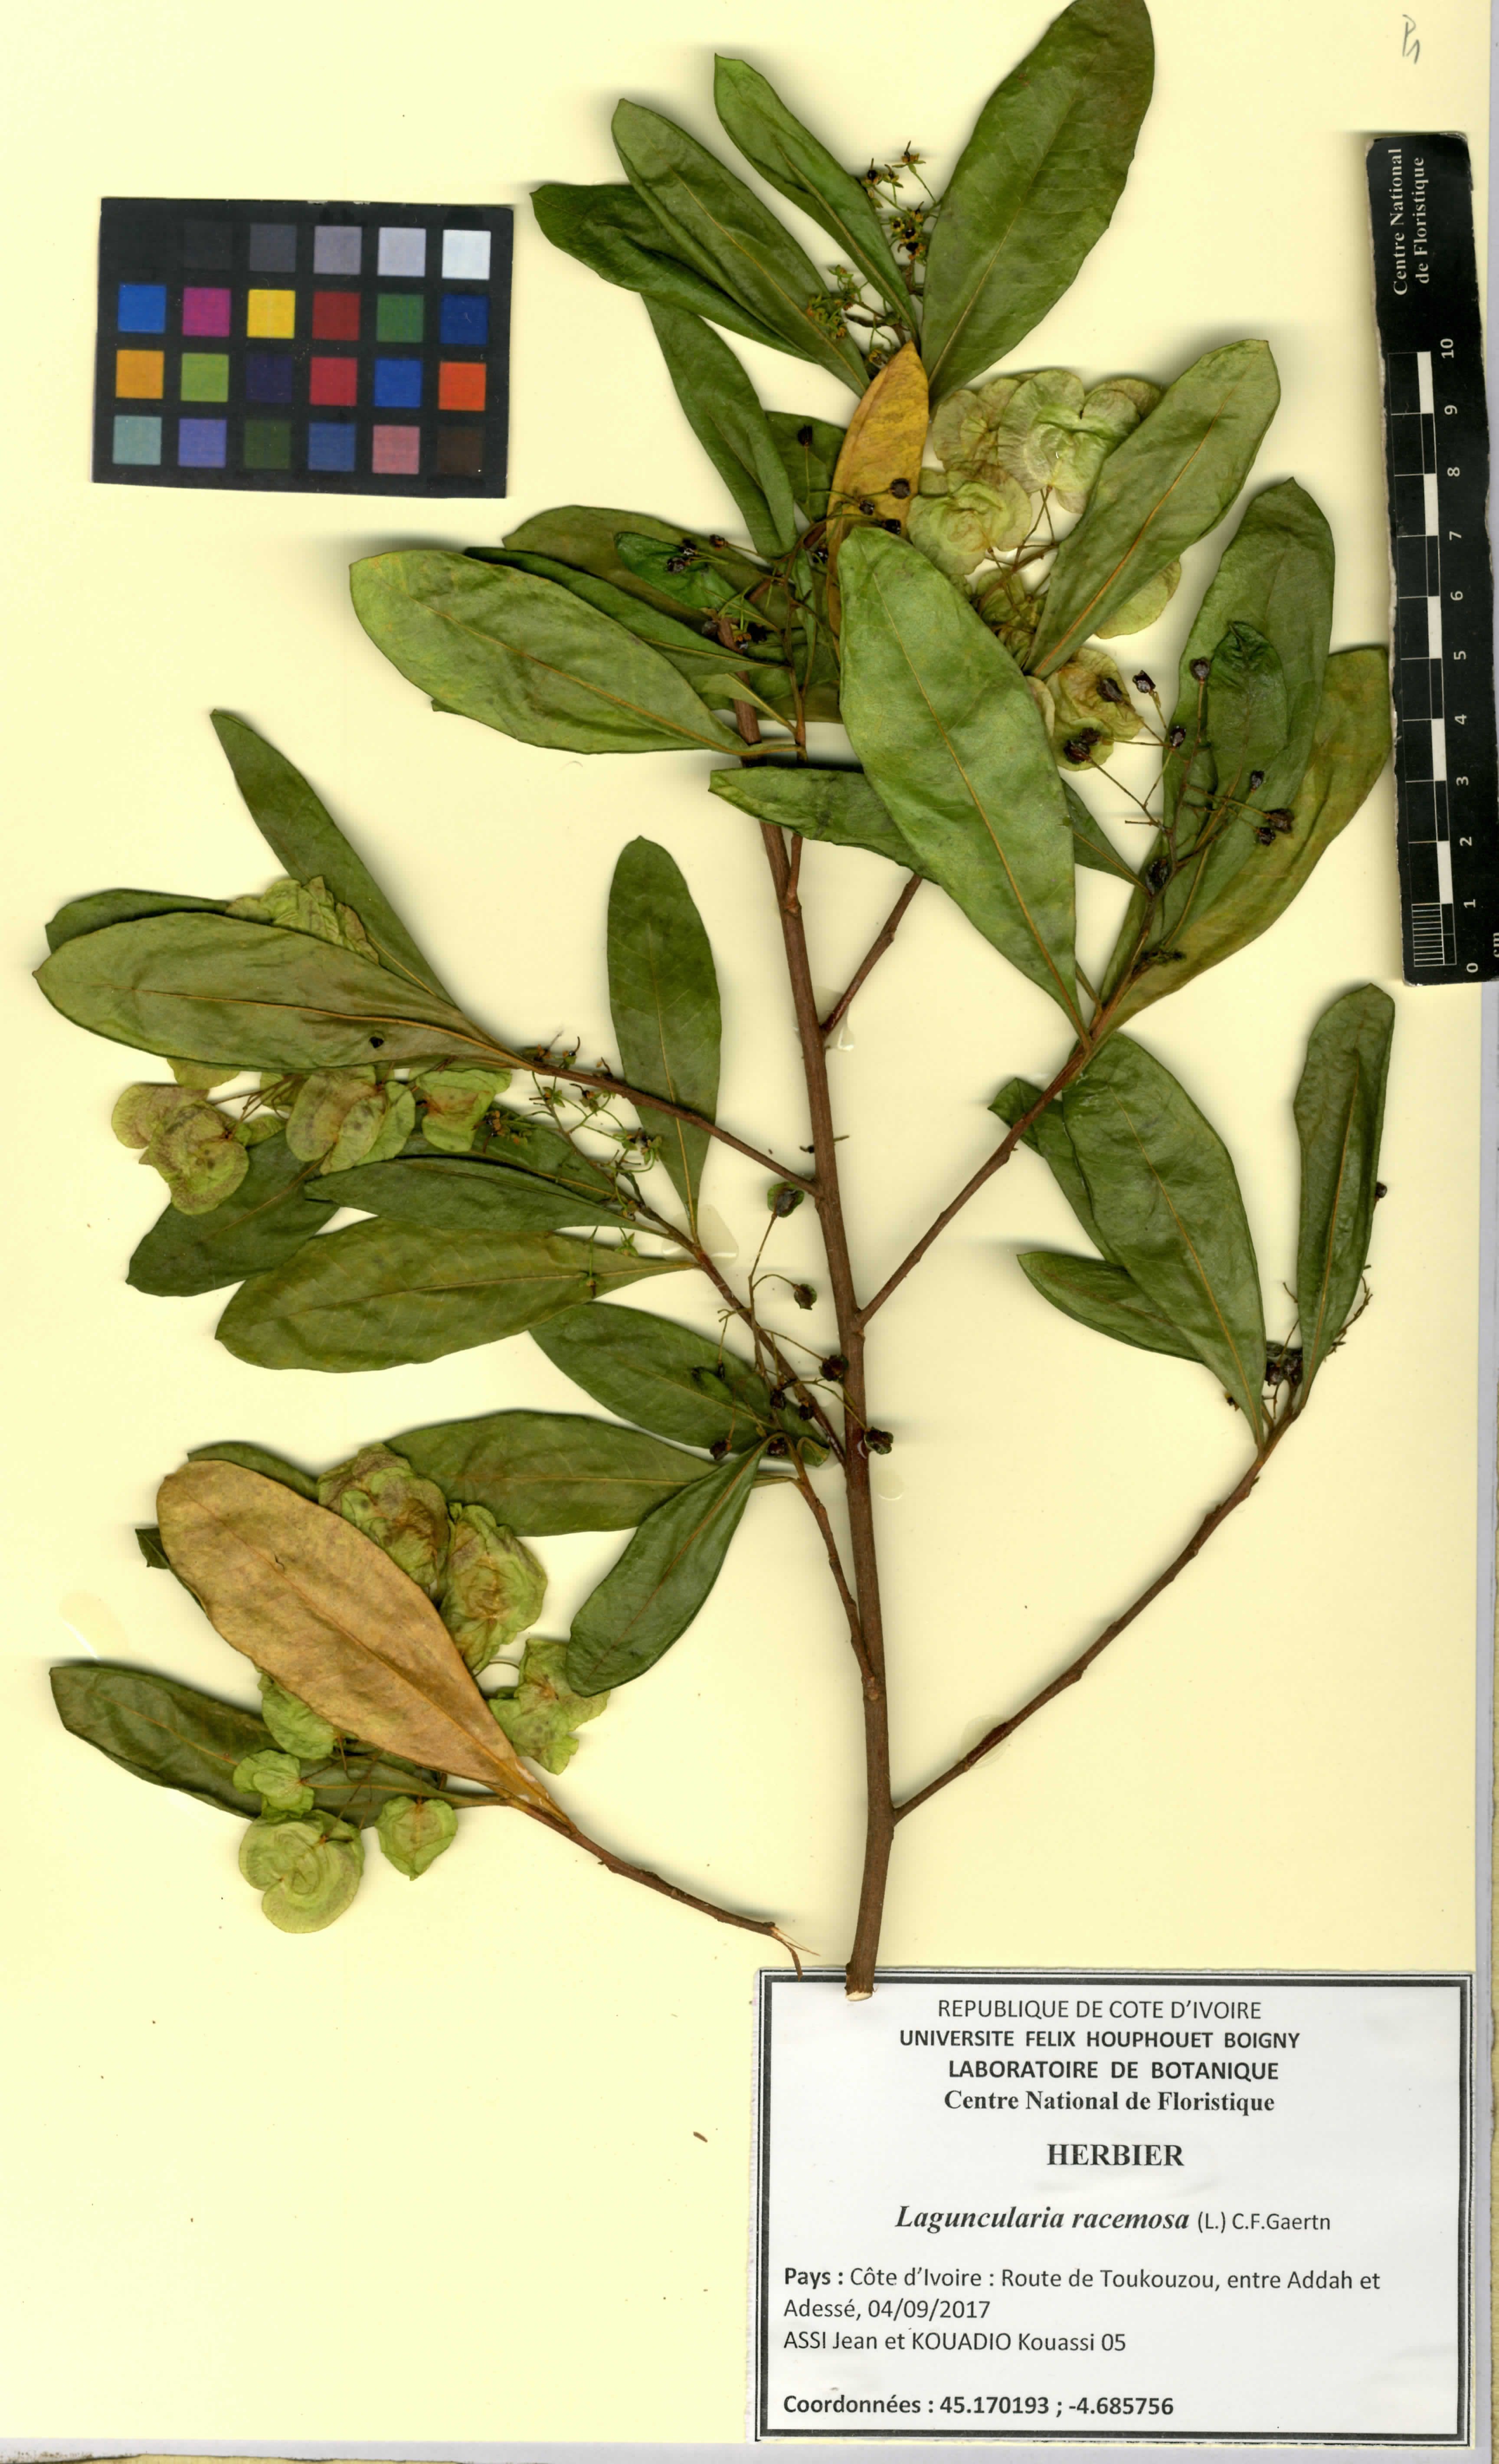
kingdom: Plantae
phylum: Tracheophyta
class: Magnoliopsida
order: Myrtales
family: Combretaceae
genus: Laguncularia
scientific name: Laguncularia racemosa
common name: White mangrove
